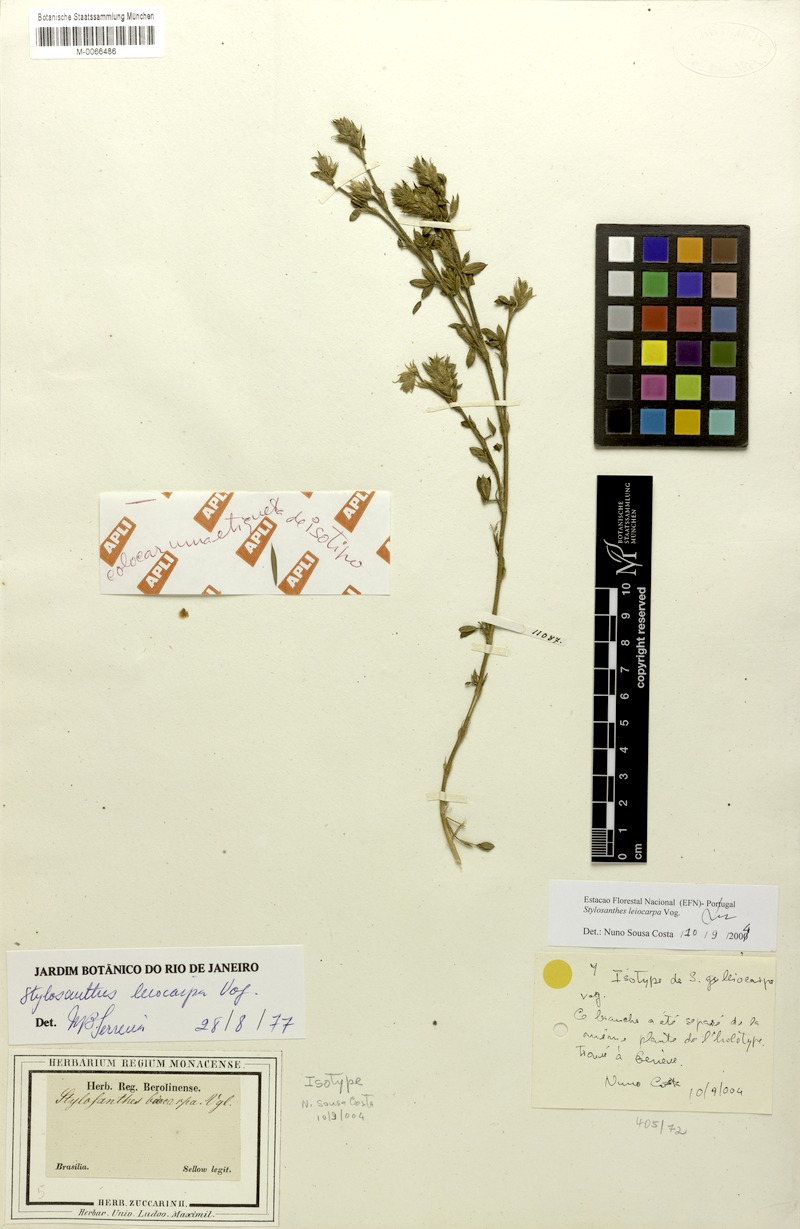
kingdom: Plantae
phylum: Tracheophyta
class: Magnoliopsida
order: Fabales
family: Fabaceae
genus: Stylosanthes
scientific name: Stylosanthes leiocarpa
